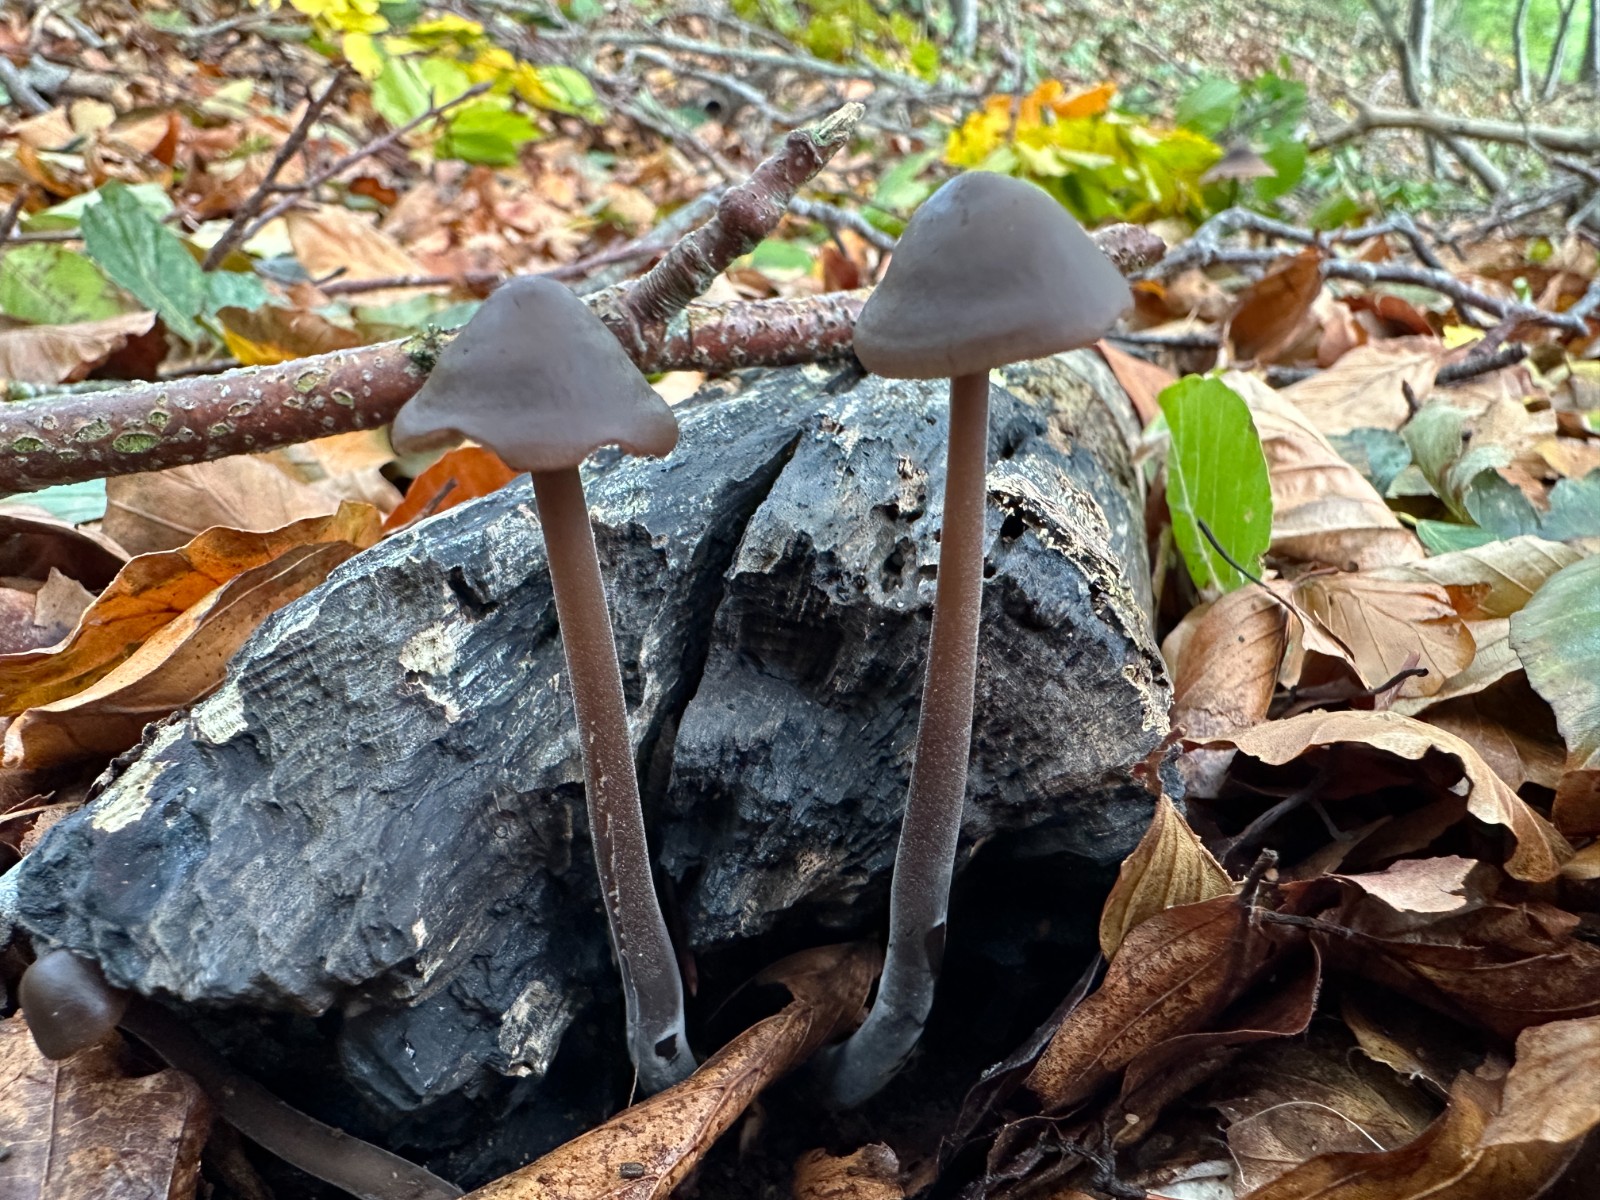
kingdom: Fungi
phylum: Basidiomycota
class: Agaricomycetes
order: Agaricales
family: Omphalotaceae
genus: Mycetinis
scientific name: Mycetinis alliaceus
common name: stor løghat
